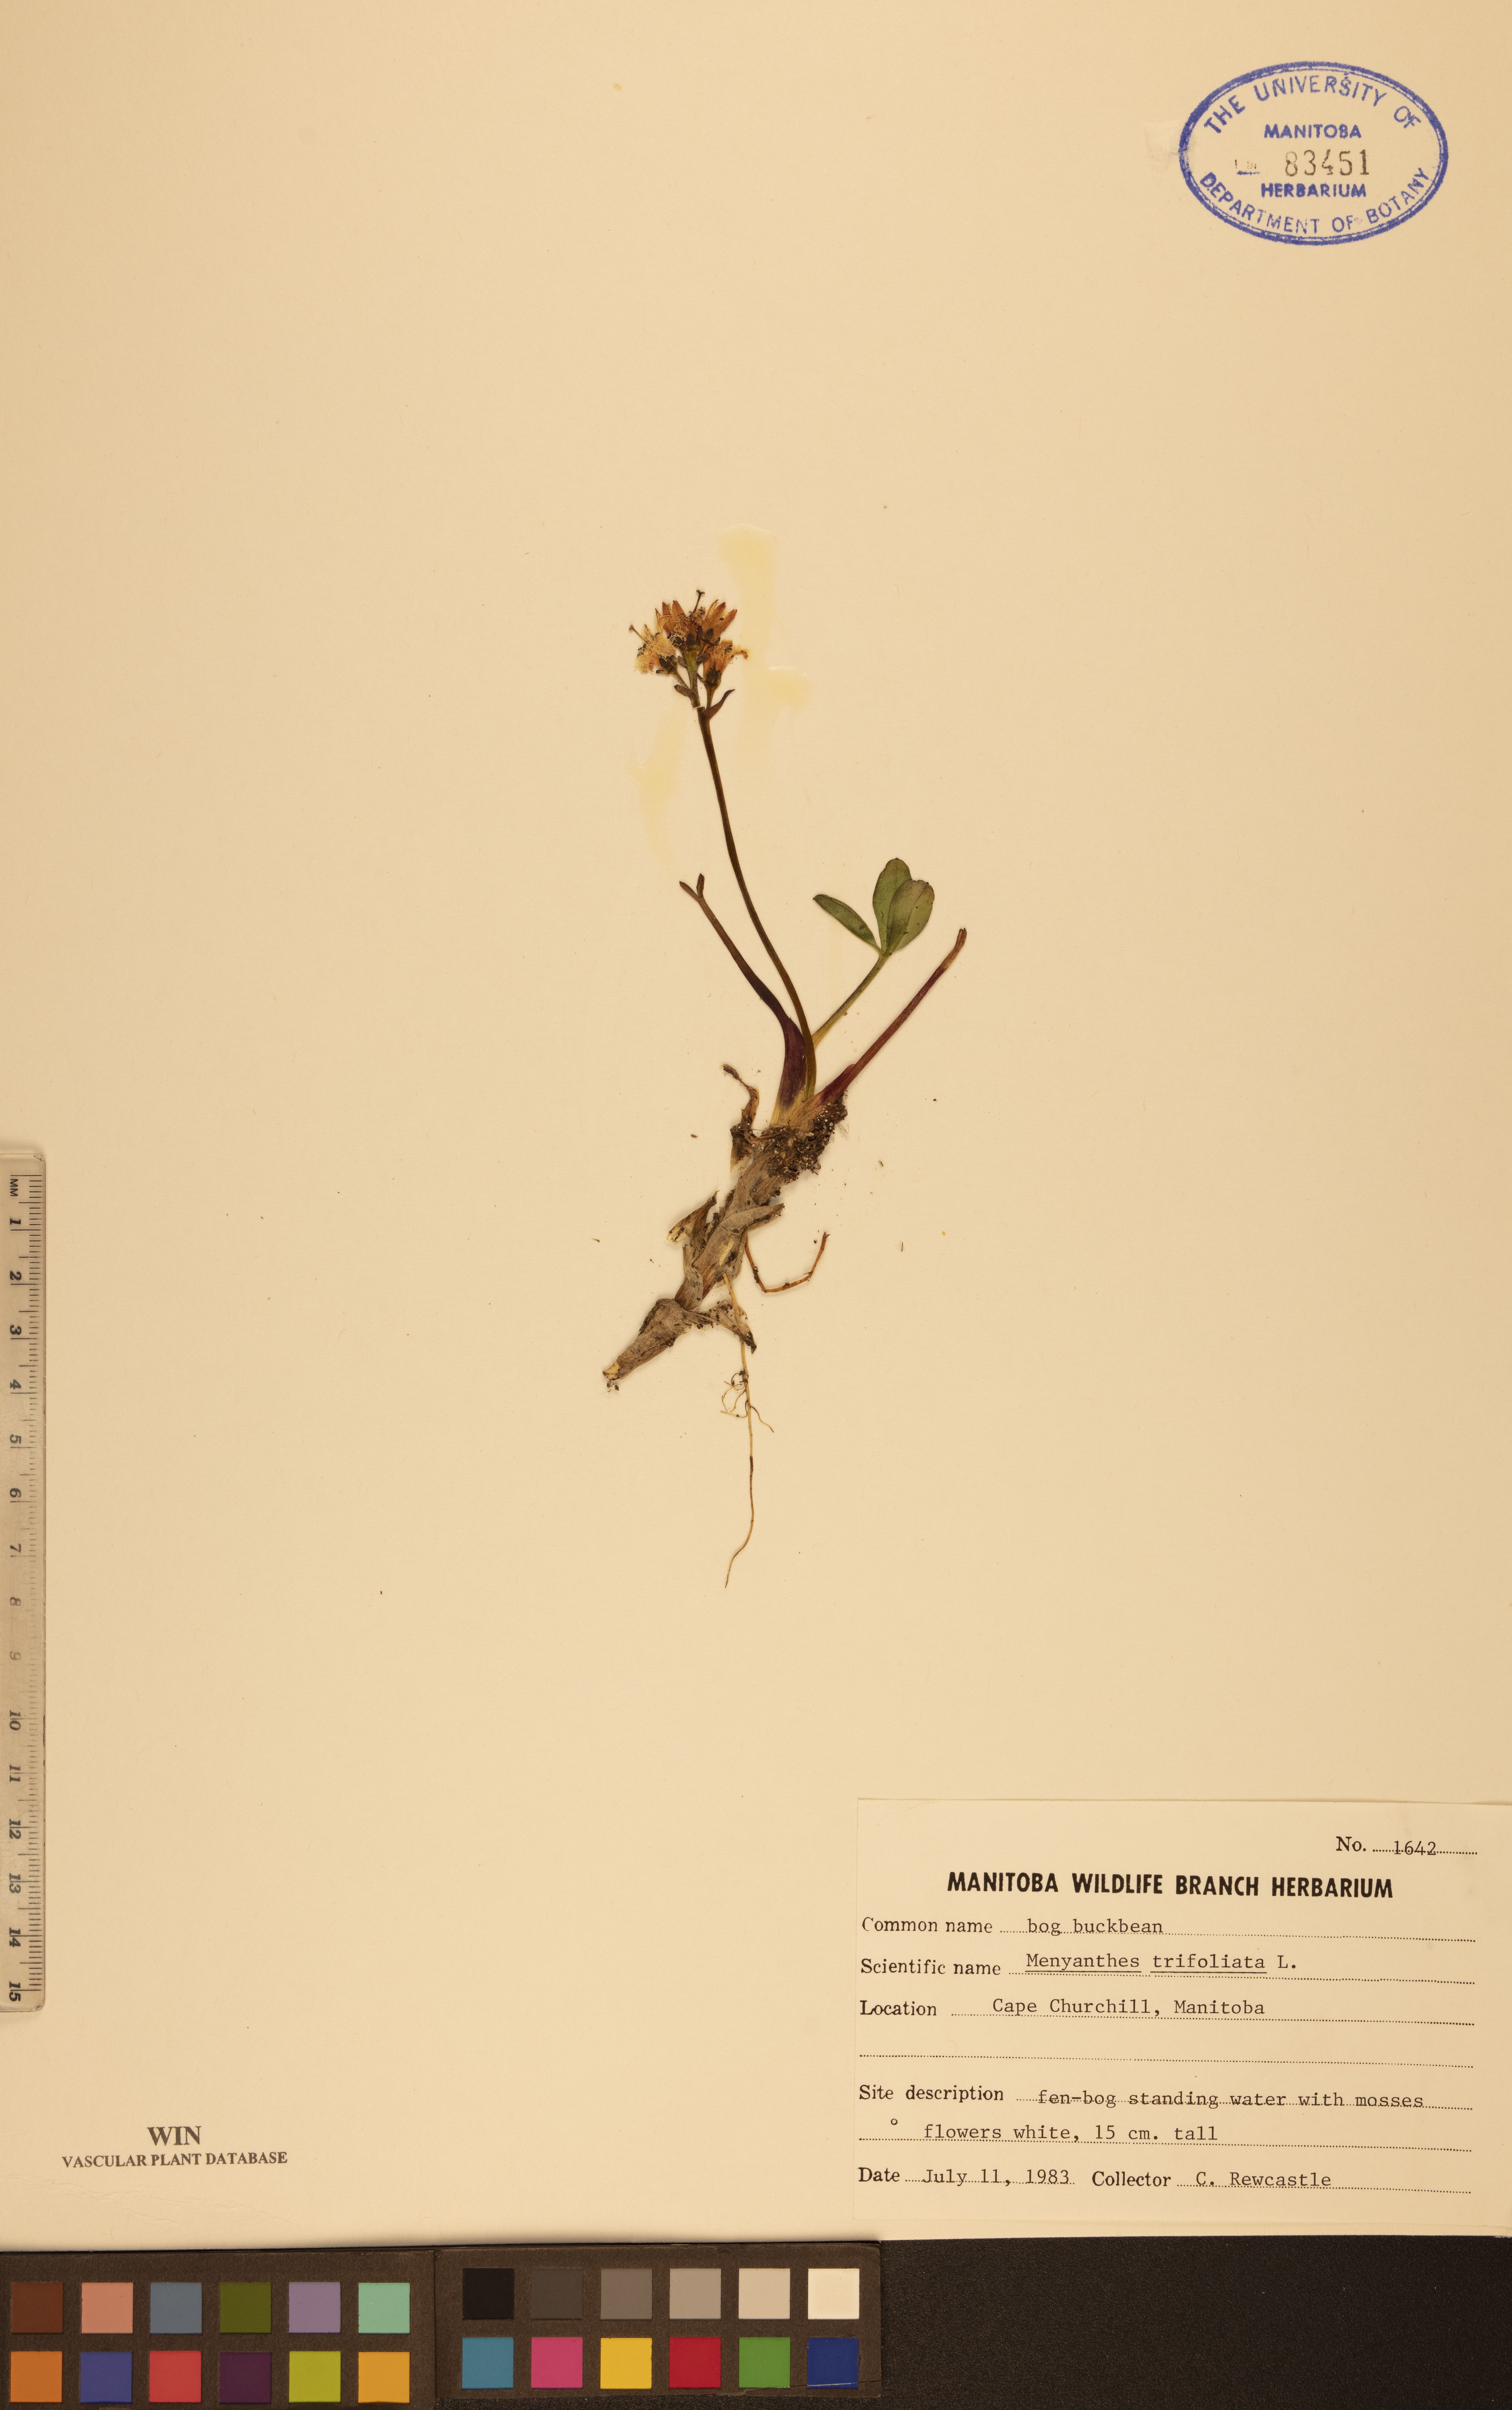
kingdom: Plantae
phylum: Tracheophyta
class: Magnoliopsida
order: Asterales
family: Menyanthaceae
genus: Menyanthes
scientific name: Menyanthes trifoliata
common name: Bogbean
